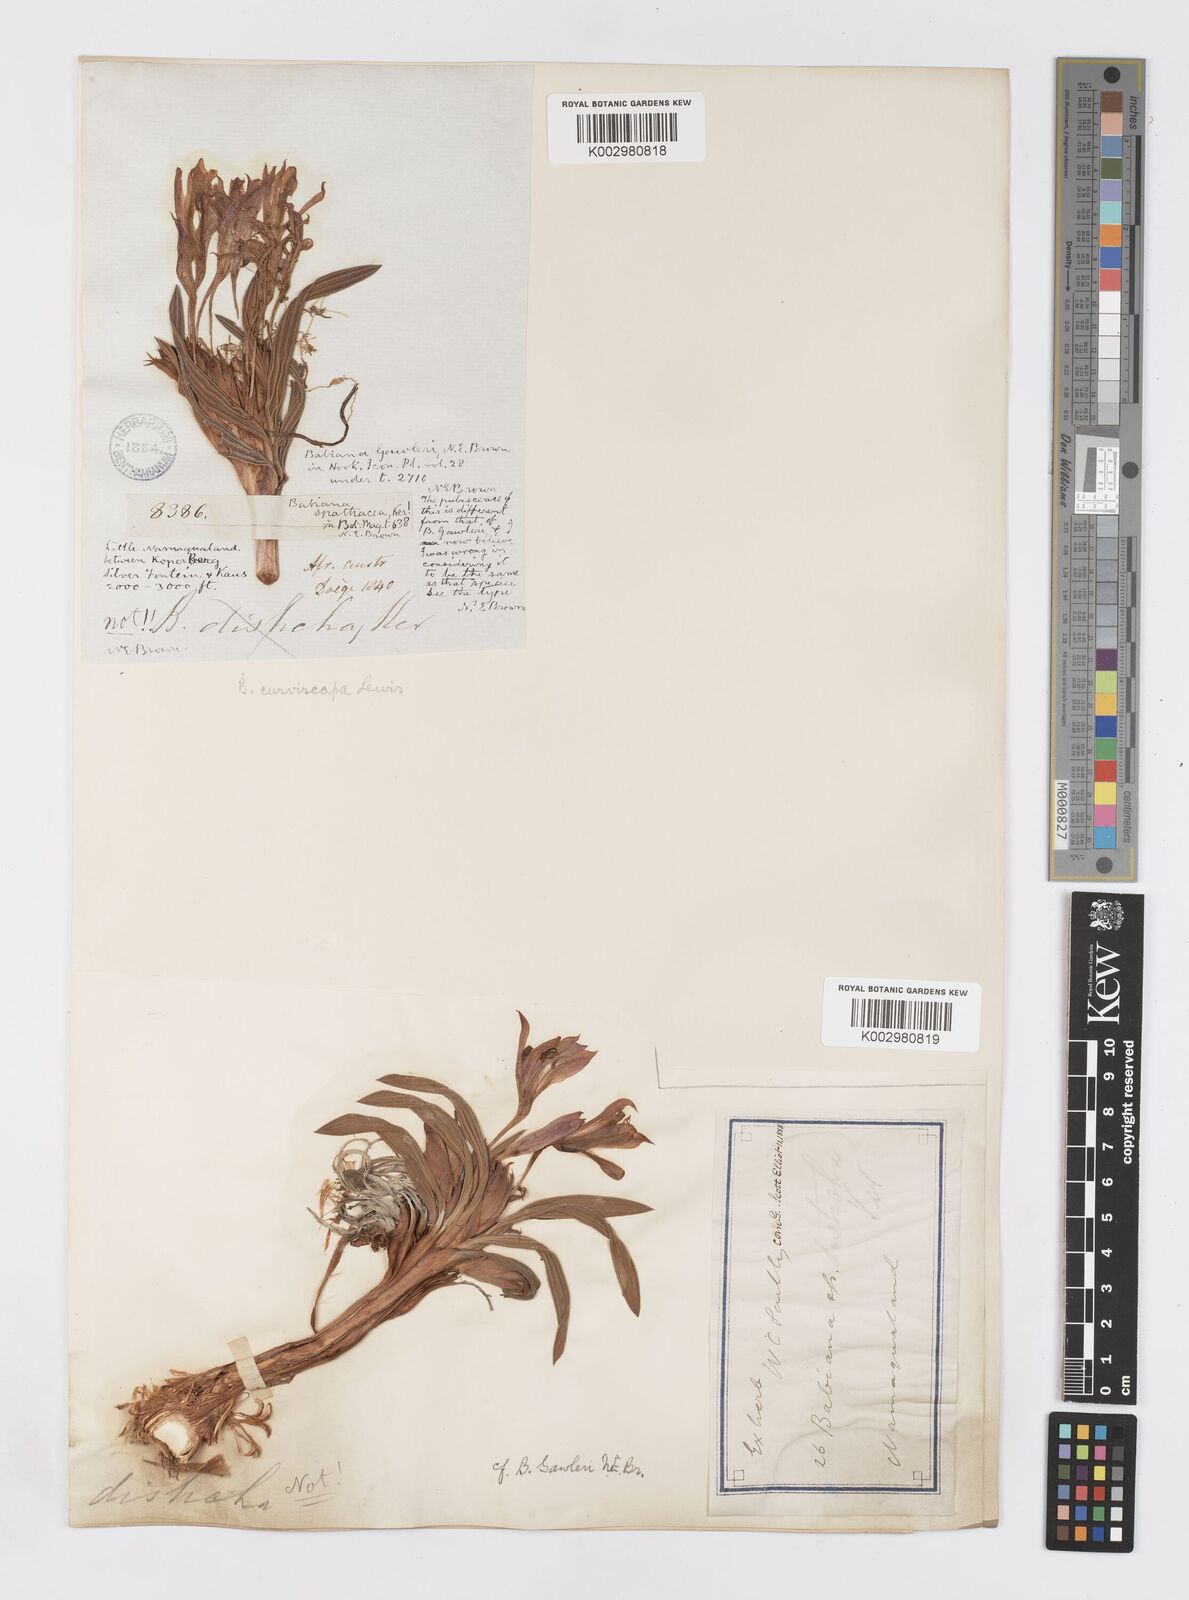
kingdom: Plantae
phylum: Tracheophyta
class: Liliopsida
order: Asparagales
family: Iridaceae
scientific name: Iridaceae
